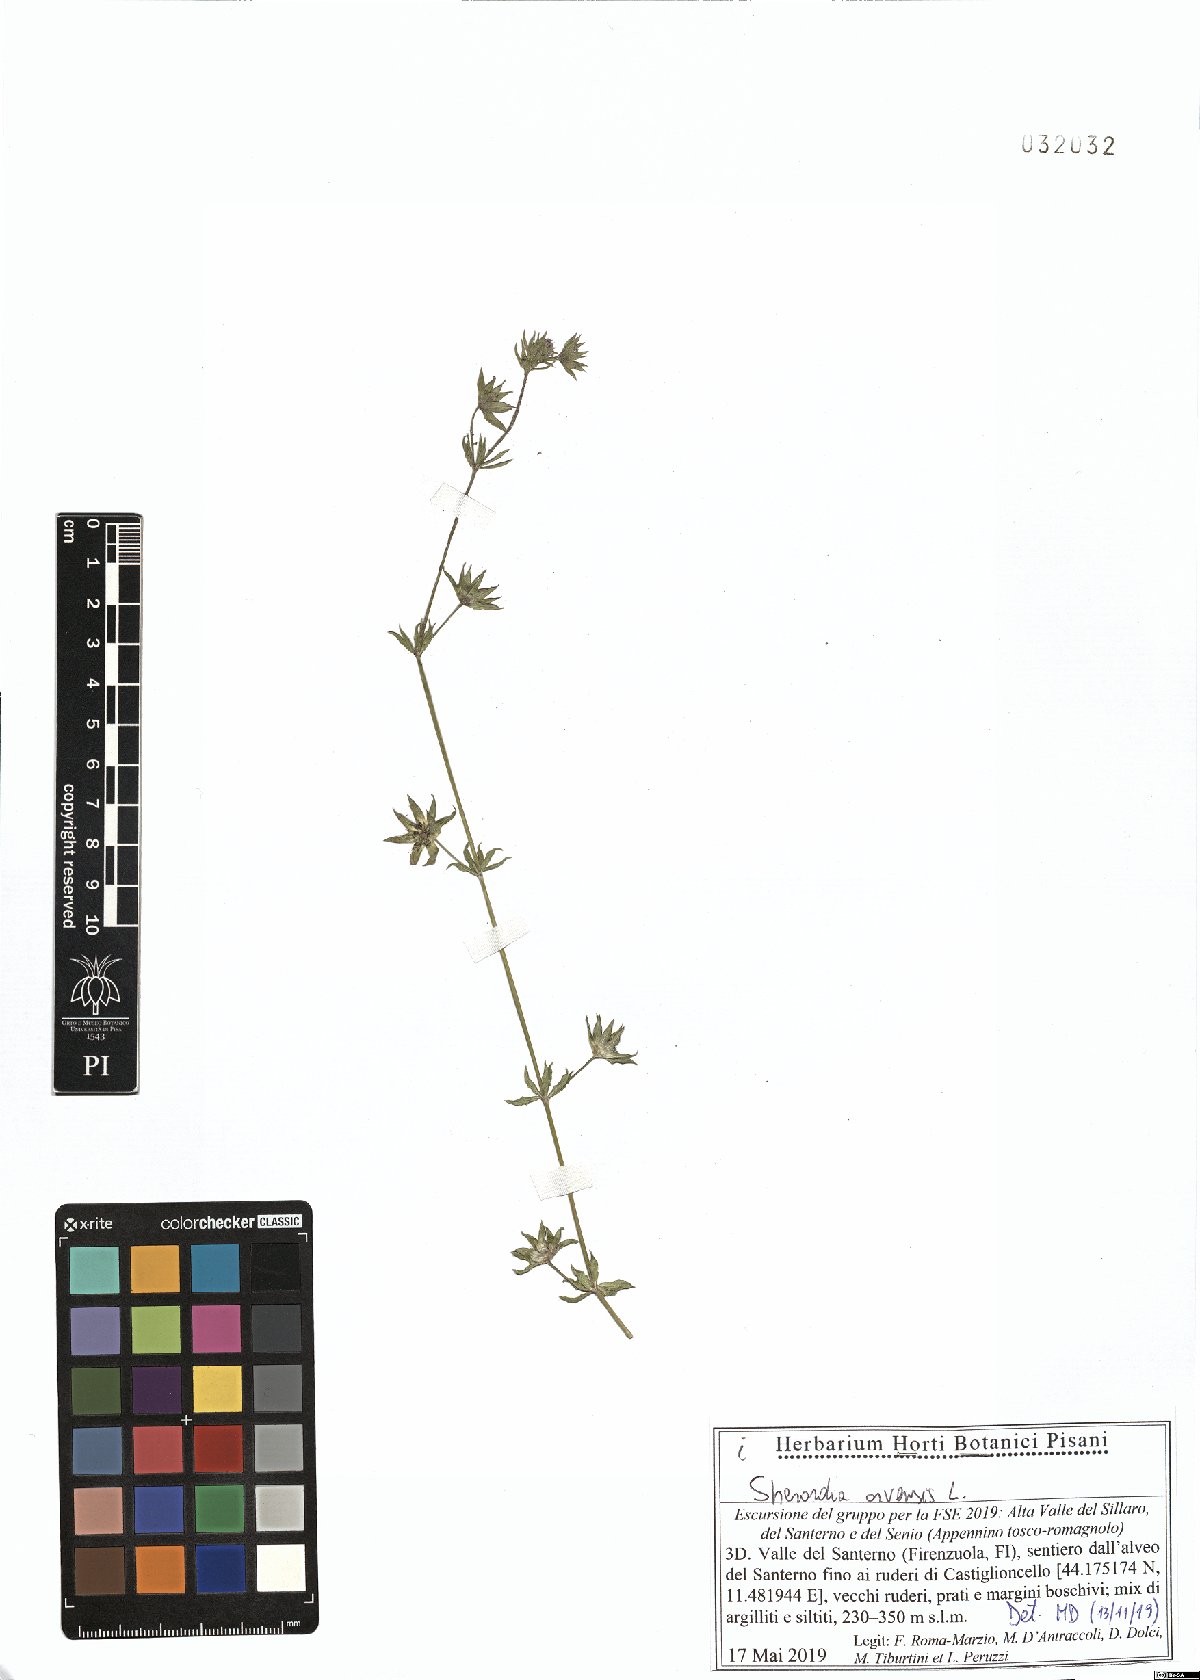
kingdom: Plantae
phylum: Tracheophyta
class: Magnoliopsida
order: Gentianales
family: Rubiaceae
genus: Sherardia
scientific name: Sherardia arvensis
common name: Field madder
